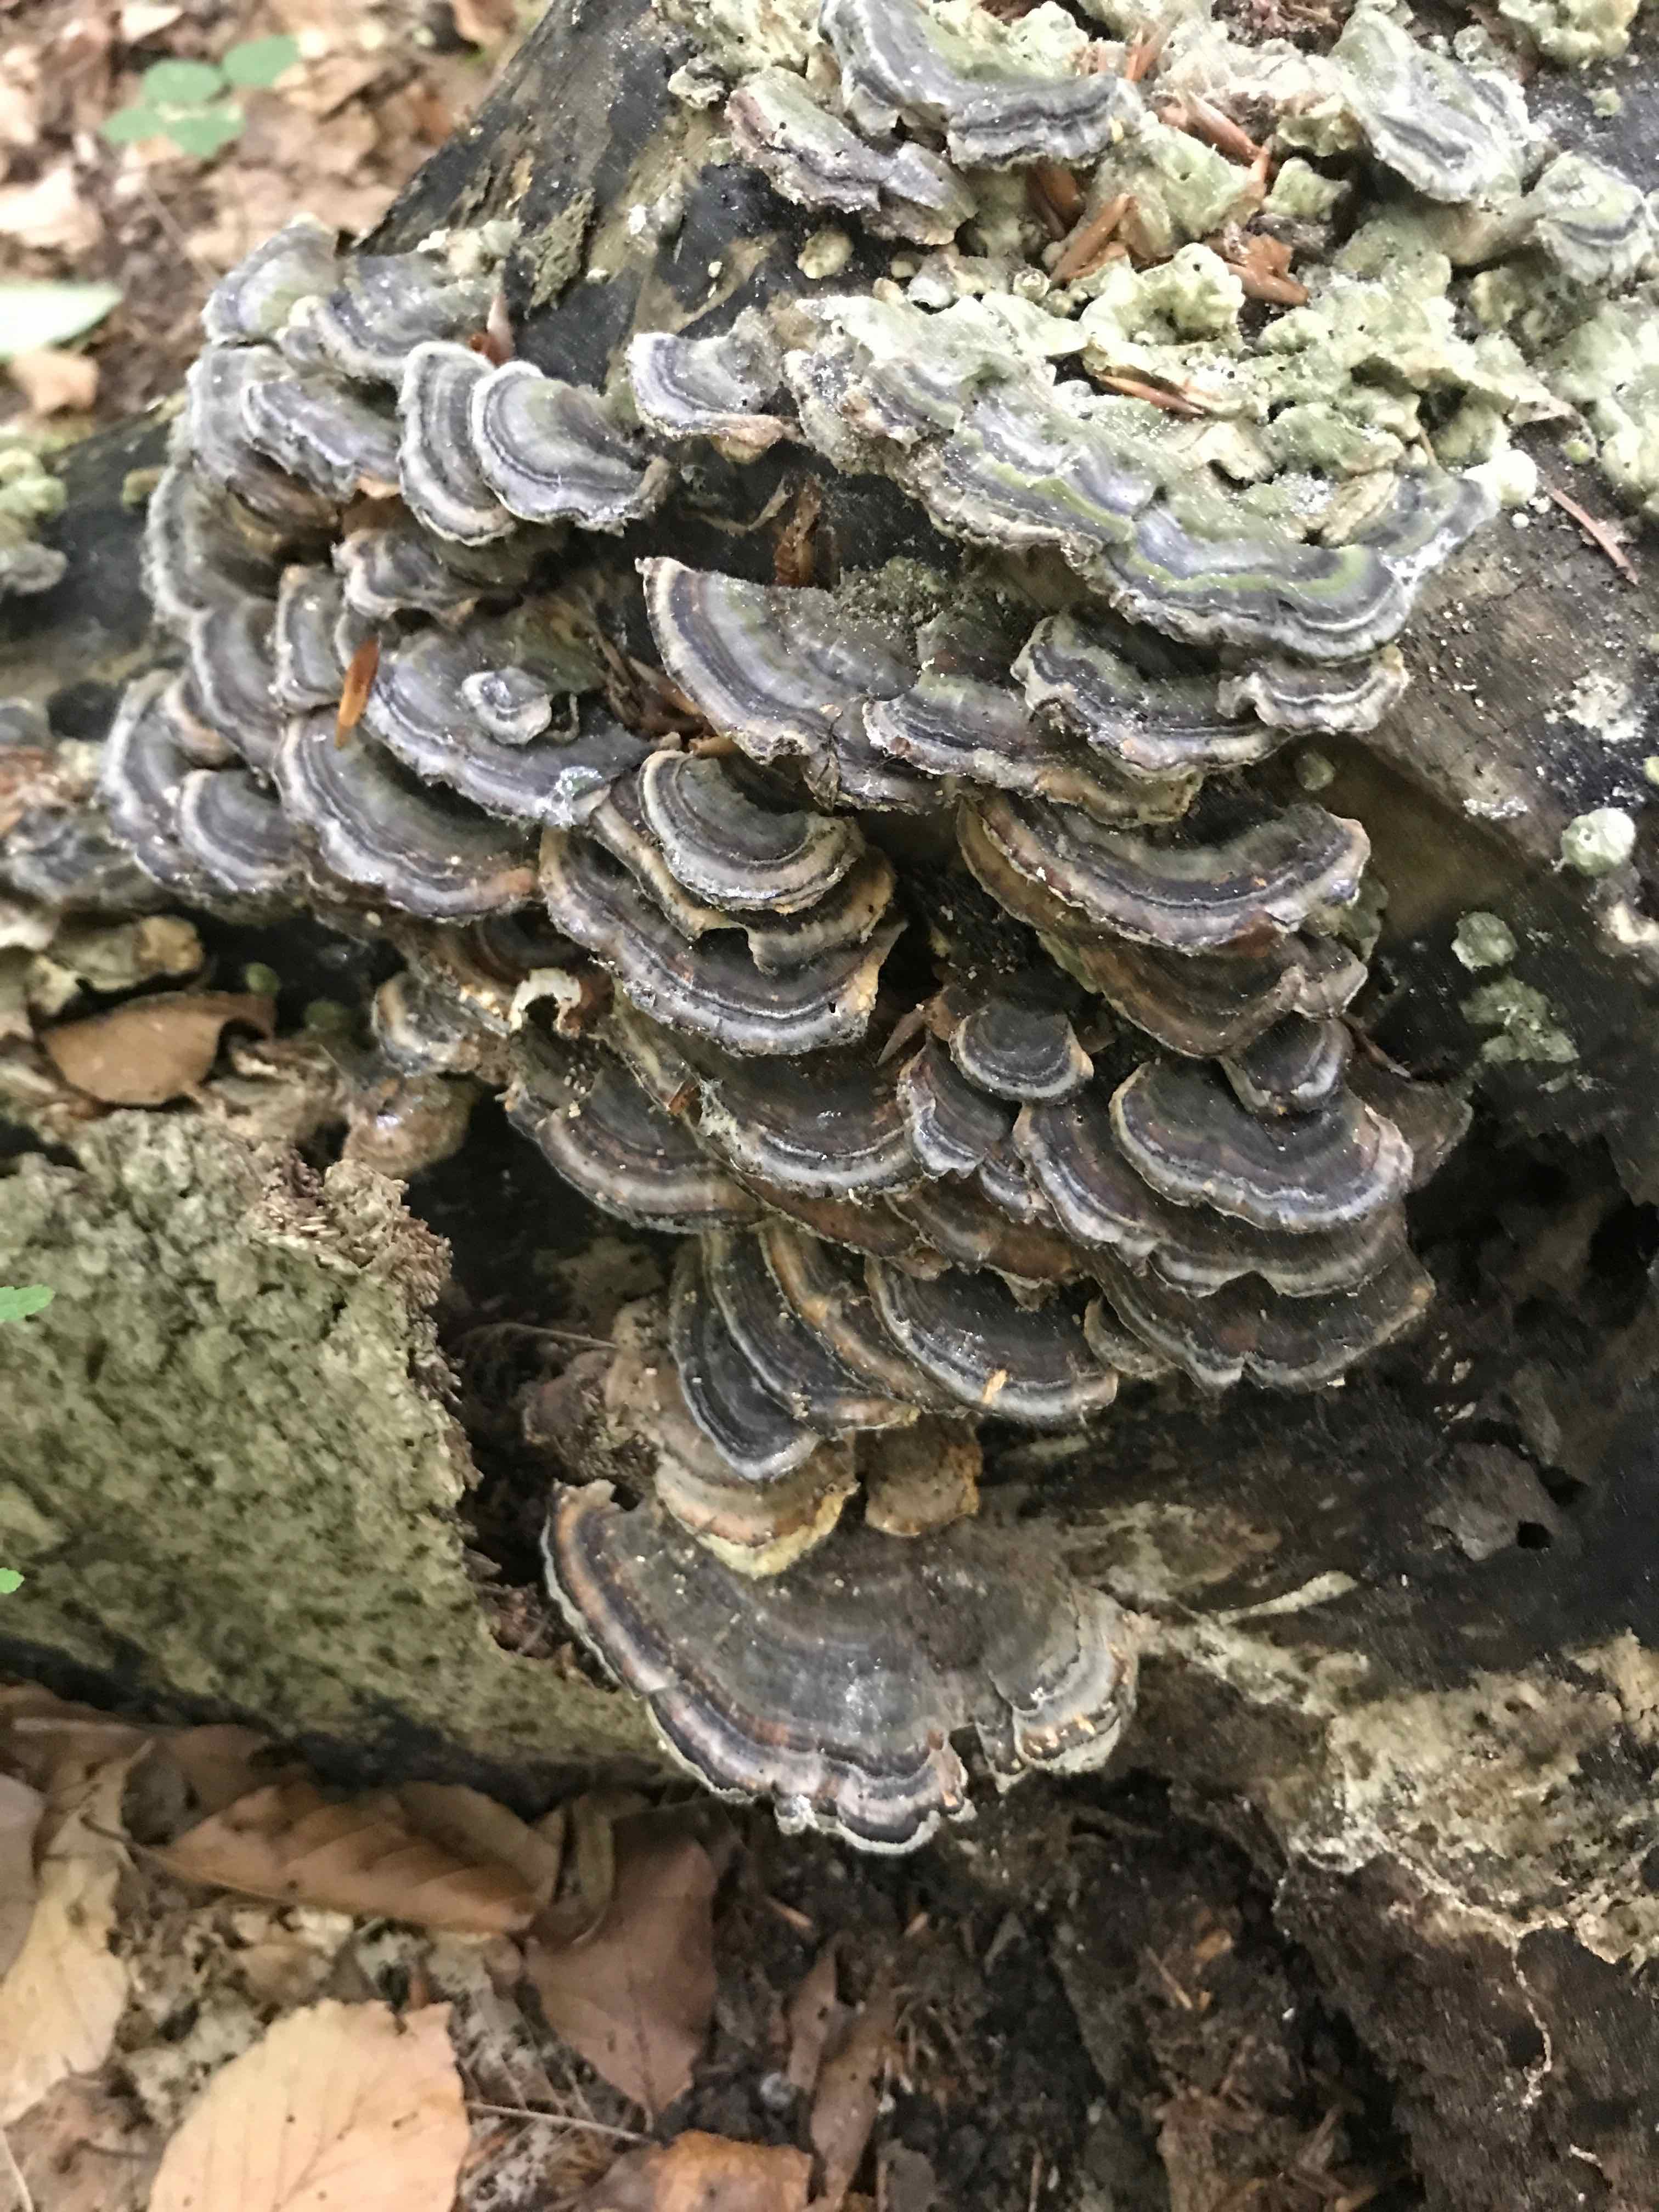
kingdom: Fungi
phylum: Basidiomycota
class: Agaricomycetes
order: Polyporales
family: Polyporaceae
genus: Trametes
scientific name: Trametes versicolor
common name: broget læderporesvamp
